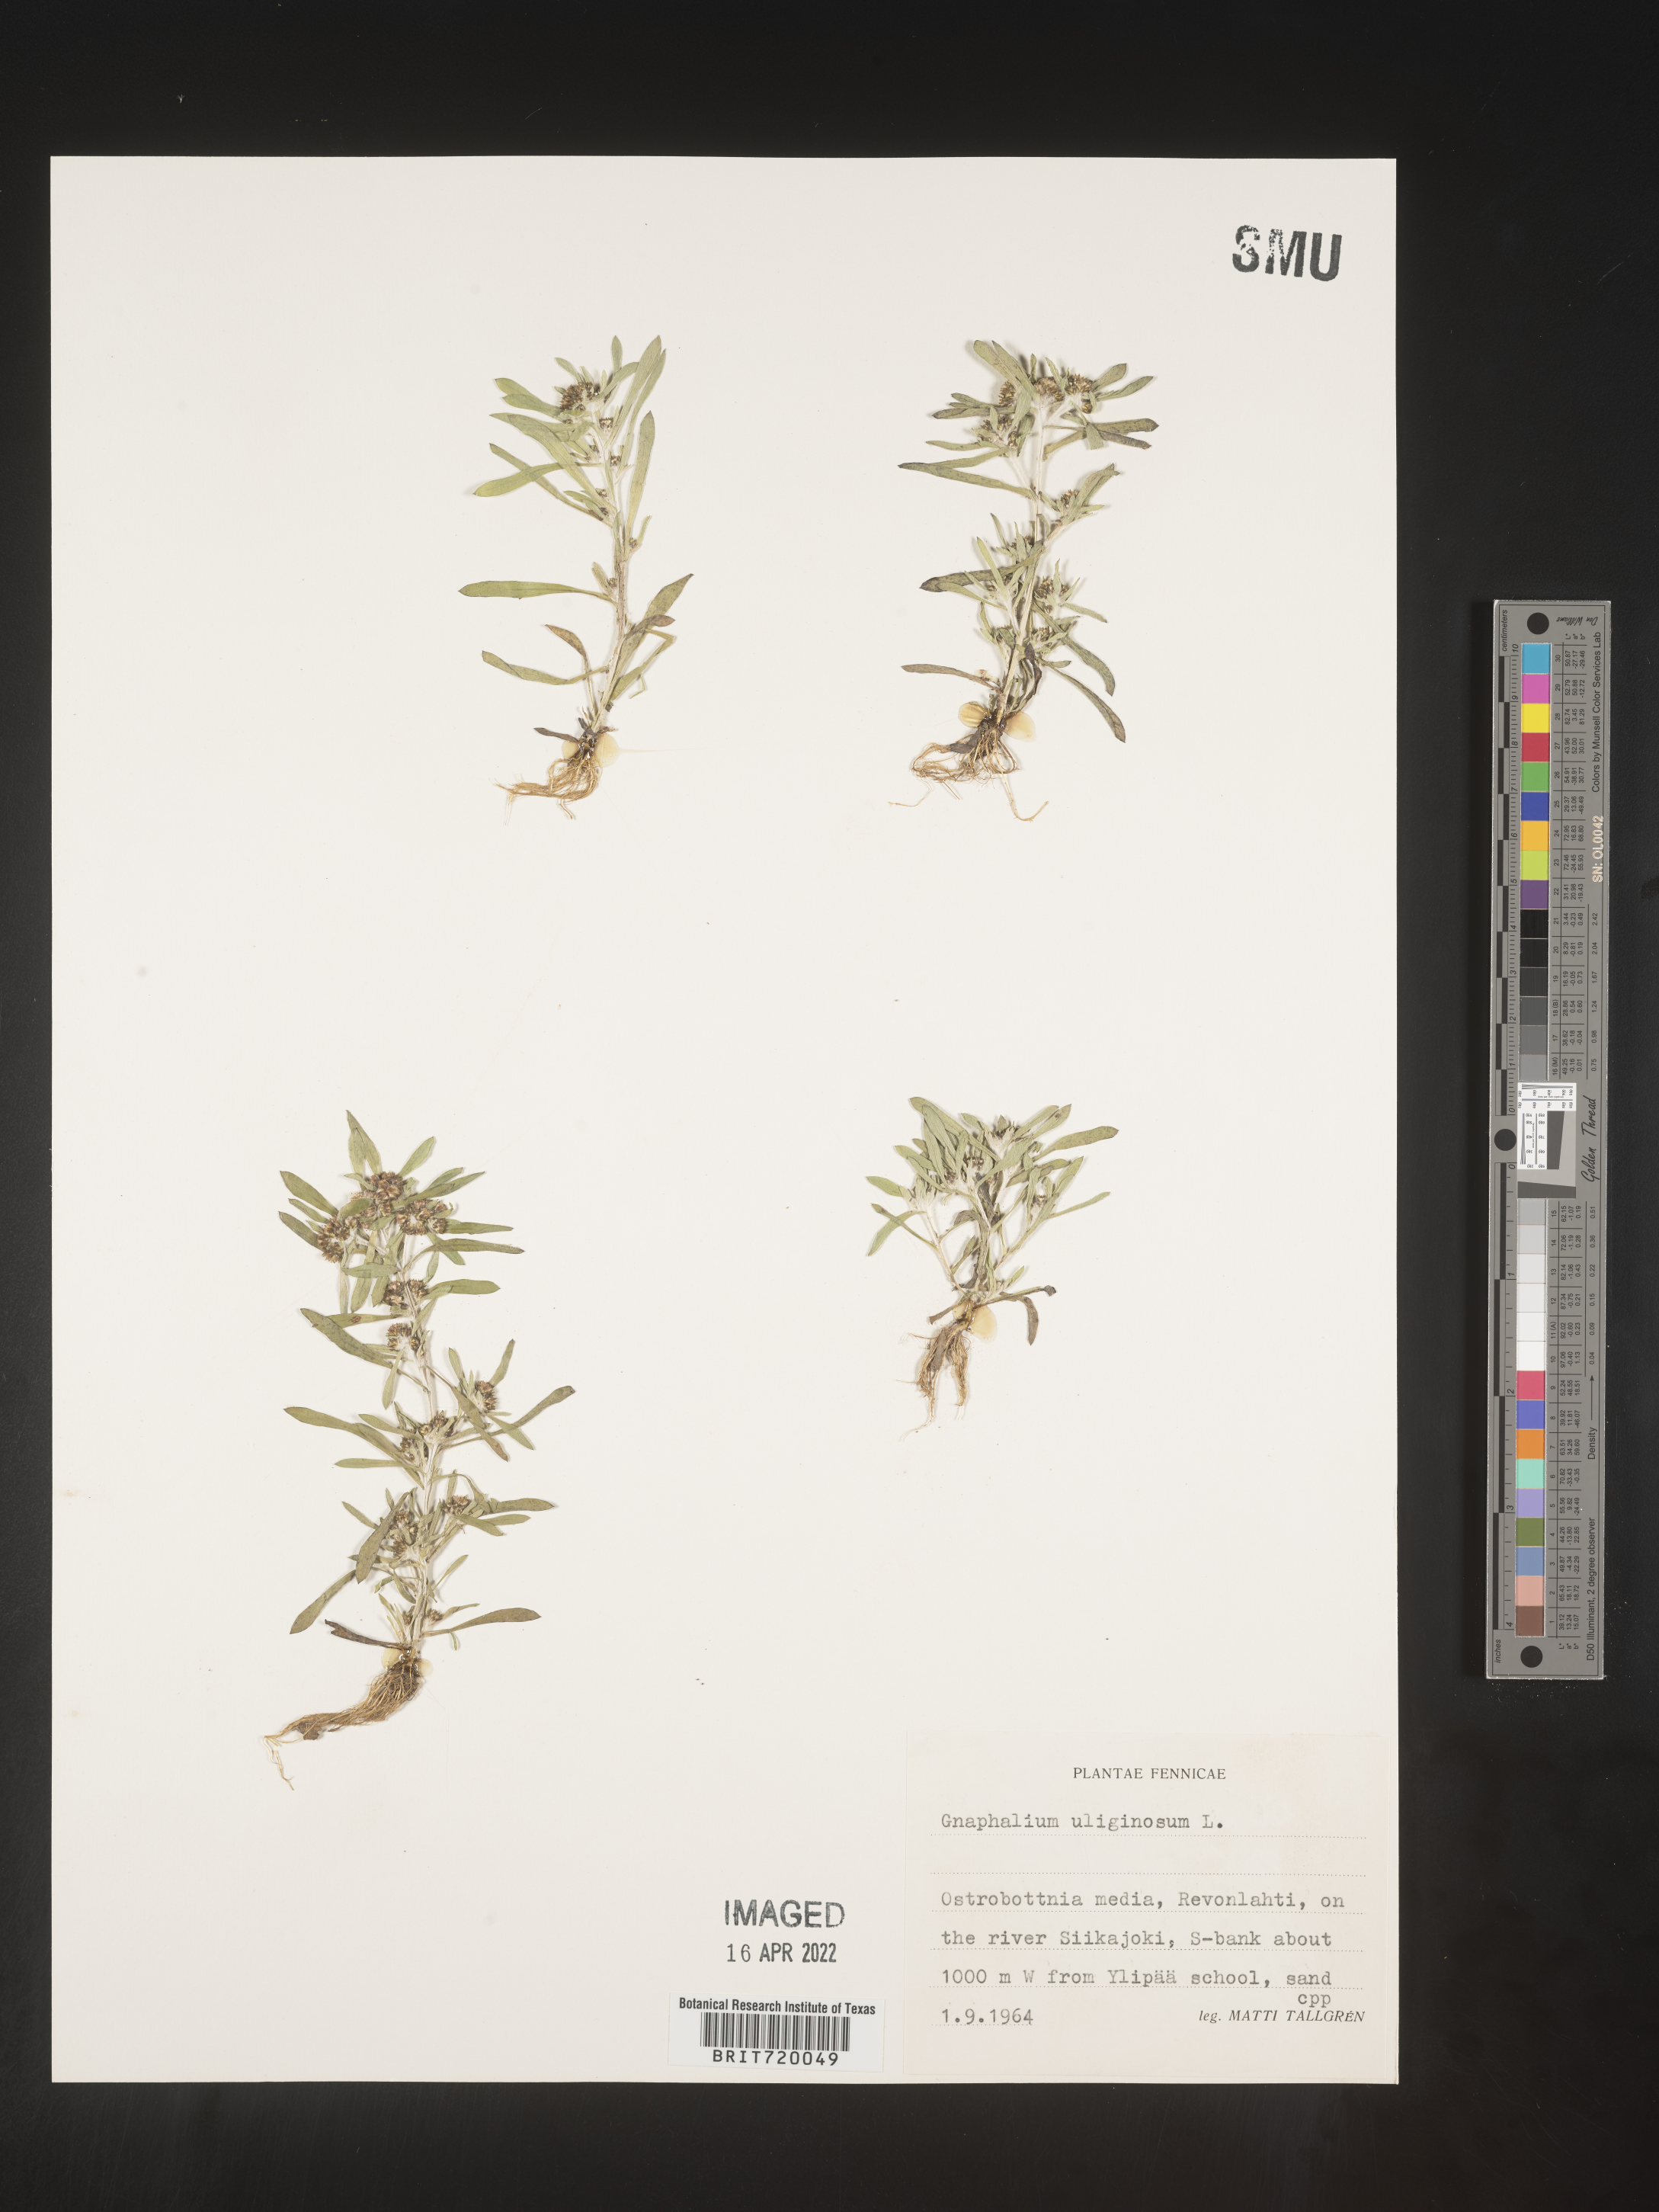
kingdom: Plantae
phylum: Tracheophyta
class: Magnoliopsida
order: Asterales
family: Asteraceae
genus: Gnaphalium
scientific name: Gnaphalium
